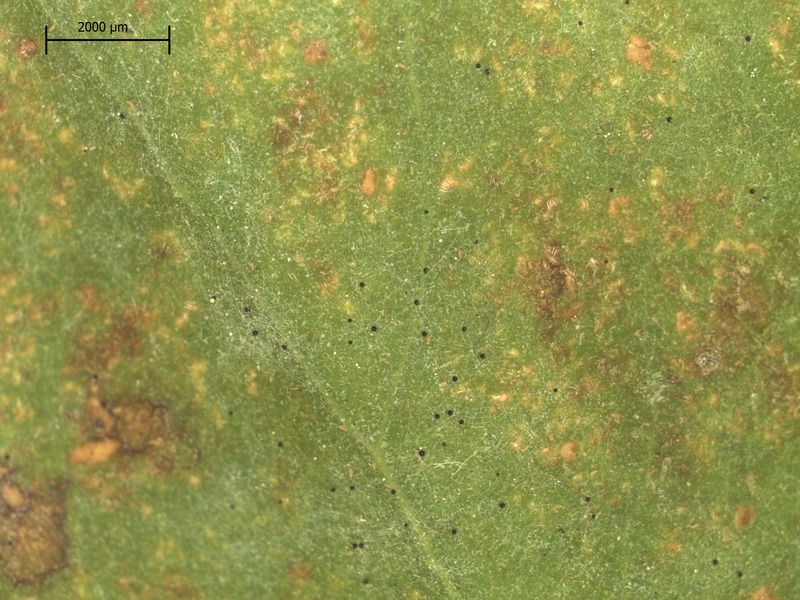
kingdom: Fungi
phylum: Ascomycota
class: Leotiomycetes
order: Helotiales
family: Erysiphaceae
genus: Erysiphe
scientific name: Erysiphe syringae
